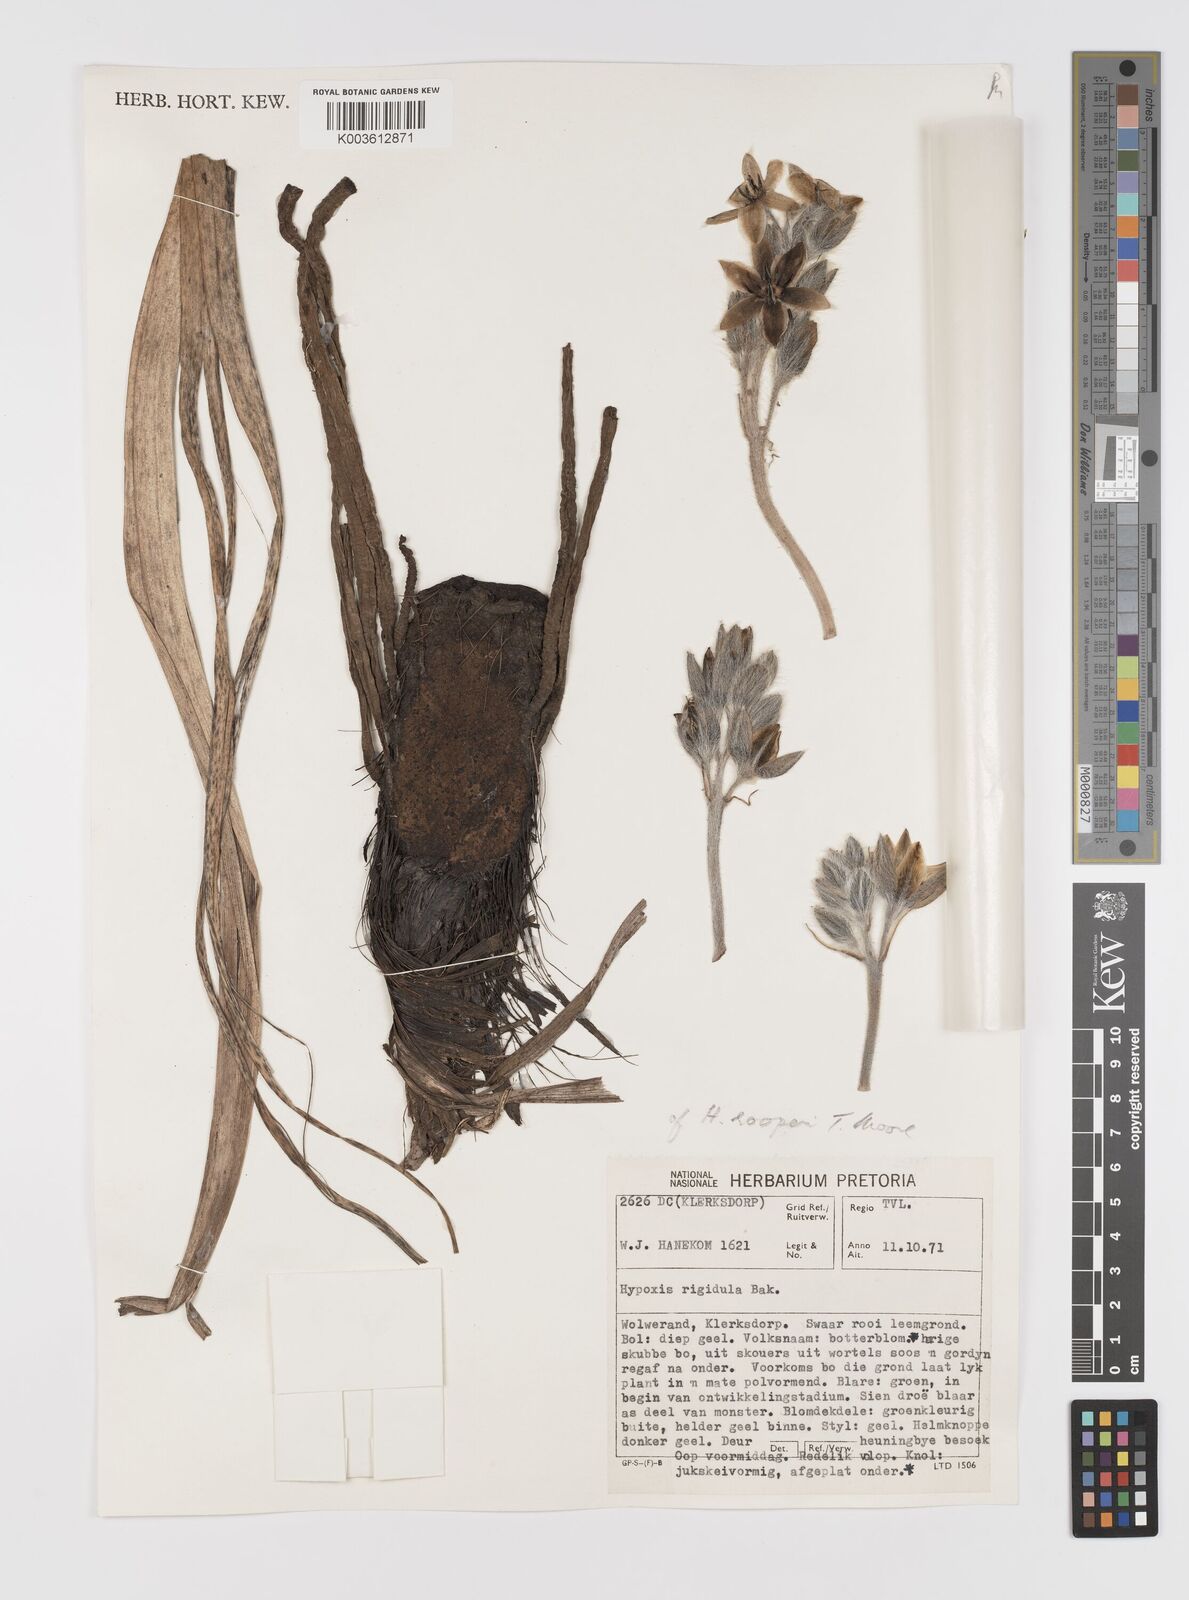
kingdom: Plantae
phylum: Tracheophyta
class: Liliopsida
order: Asparagales
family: Hypoxidaceae
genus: Hypoxis
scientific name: Hypoxis hemerocallidea
